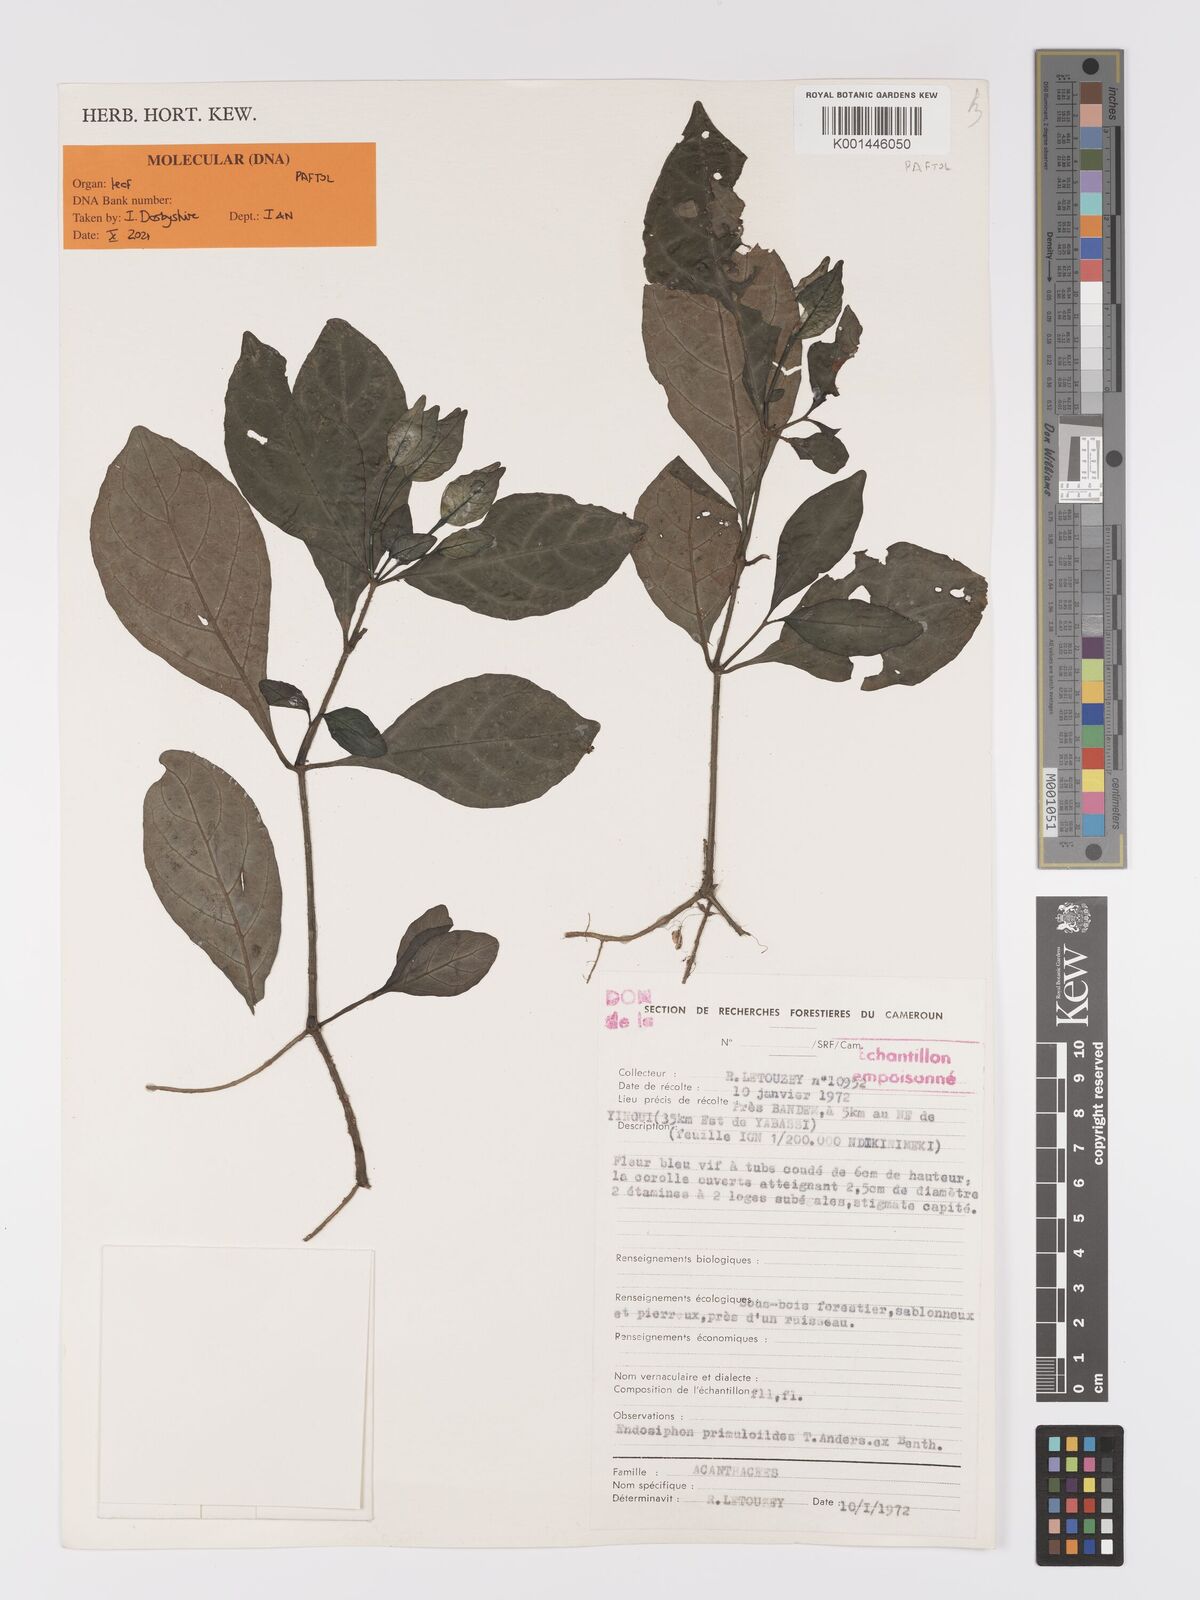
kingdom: Plantae
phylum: Tracheophyta
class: Magnoliopsida
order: Lamiales
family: Acanthaceae
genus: Ruellia
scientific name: Ruellia primuloides
